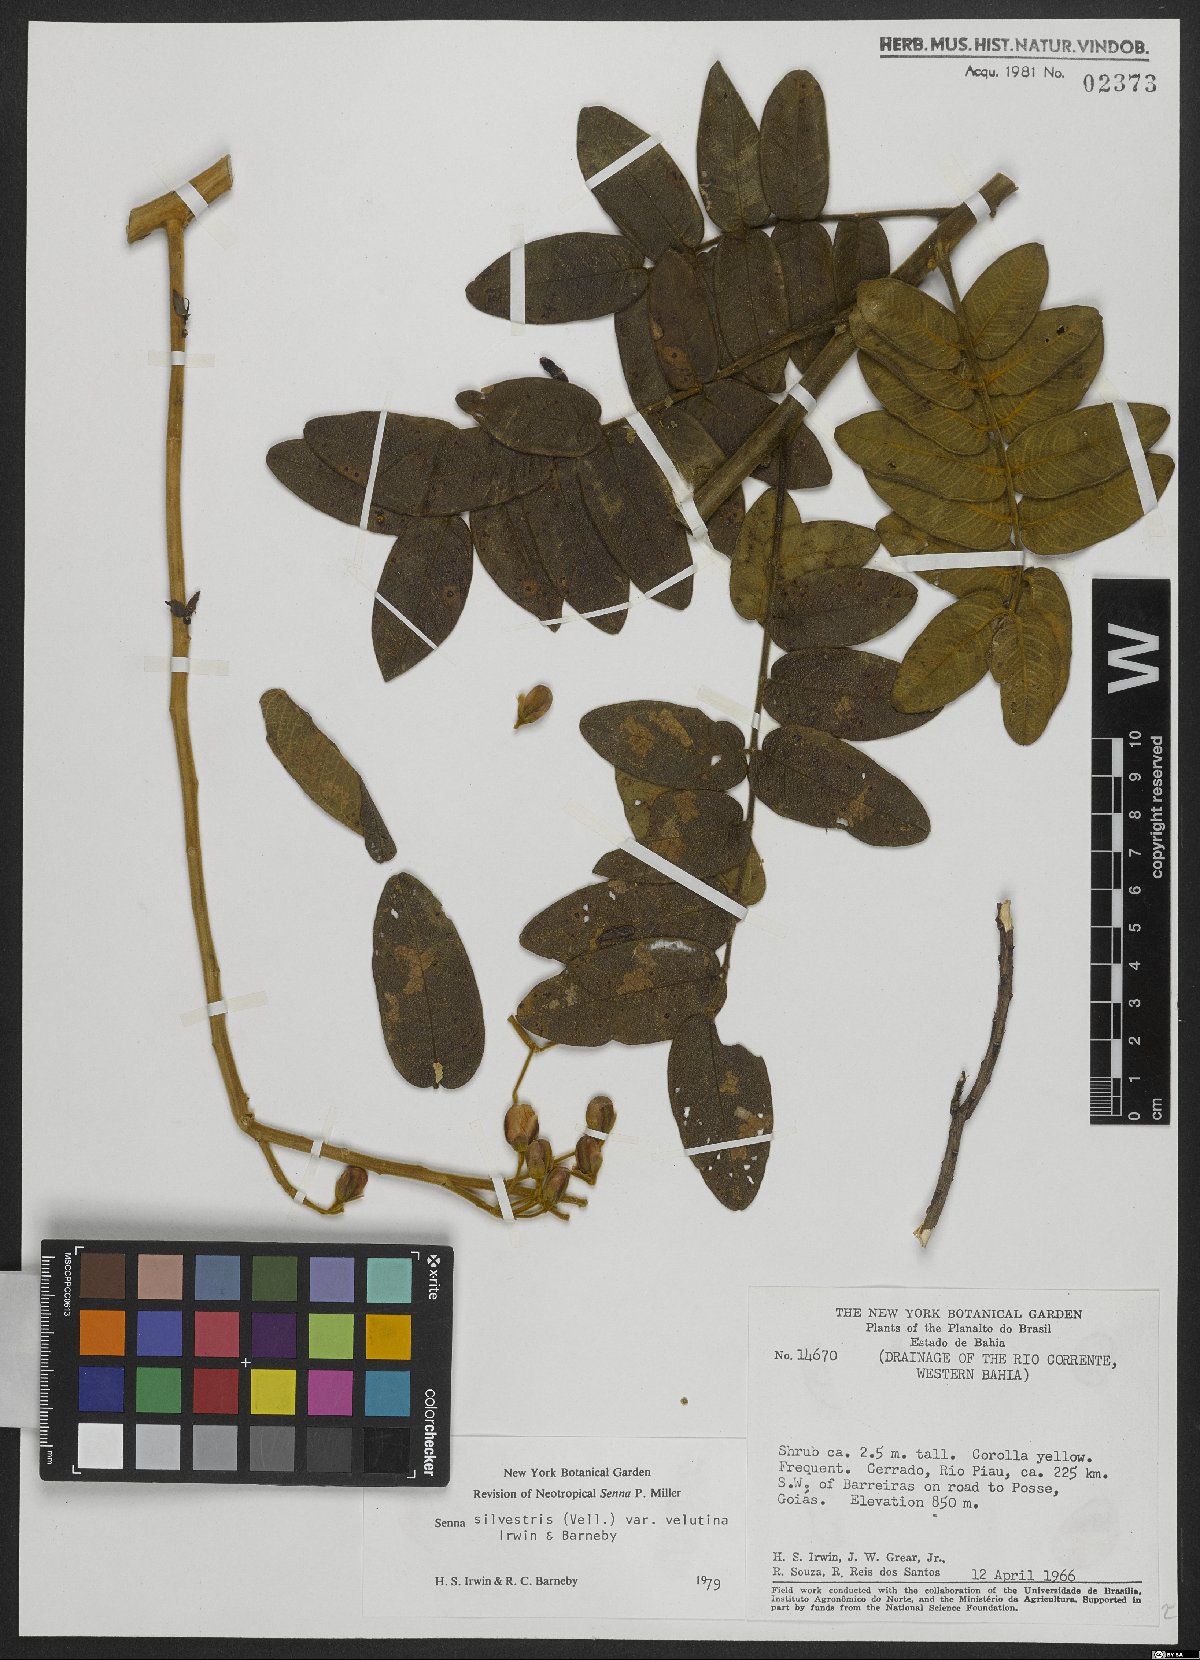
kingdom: Plantae
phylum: Tracheophyta
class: Magnoliopsida
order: Fabales
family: Fabaceae
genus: Senna
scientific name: Senna silvestris
